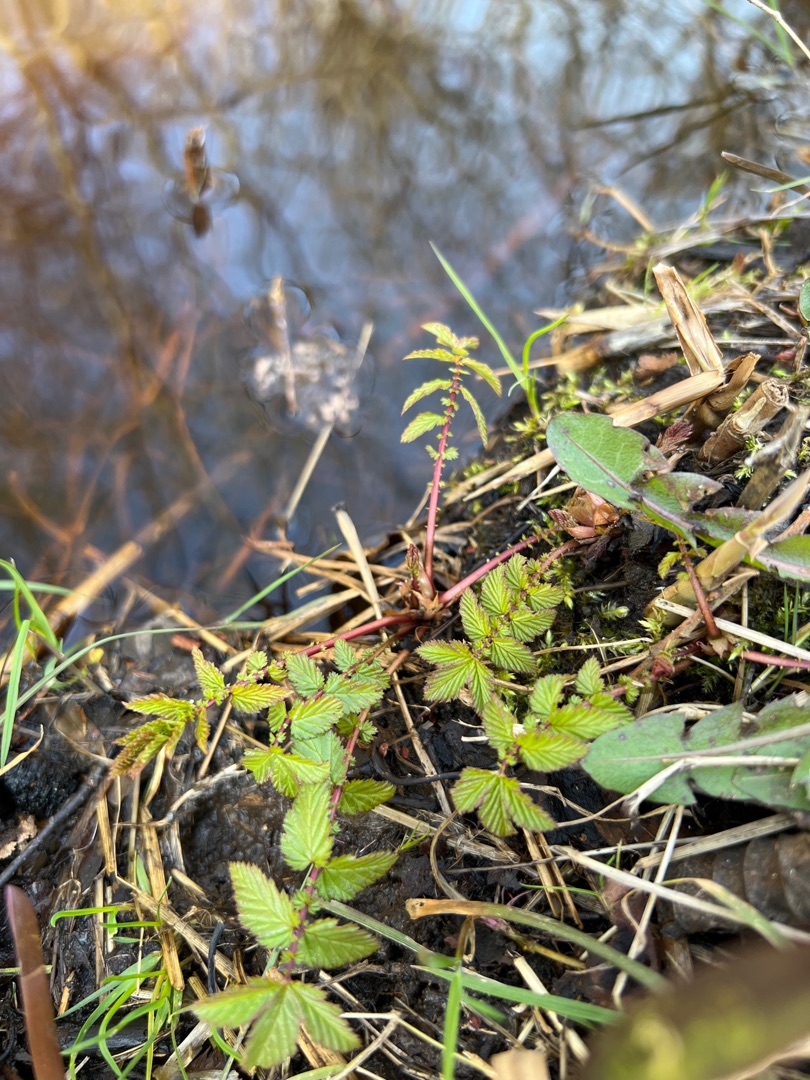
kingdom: Plantae
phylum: Tracheophyta
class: Magnoliopsida
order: Rosales
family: Rosaceae
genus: Filipendula
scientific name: Filipendula ulmaria
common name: Almindelig mjødurt
